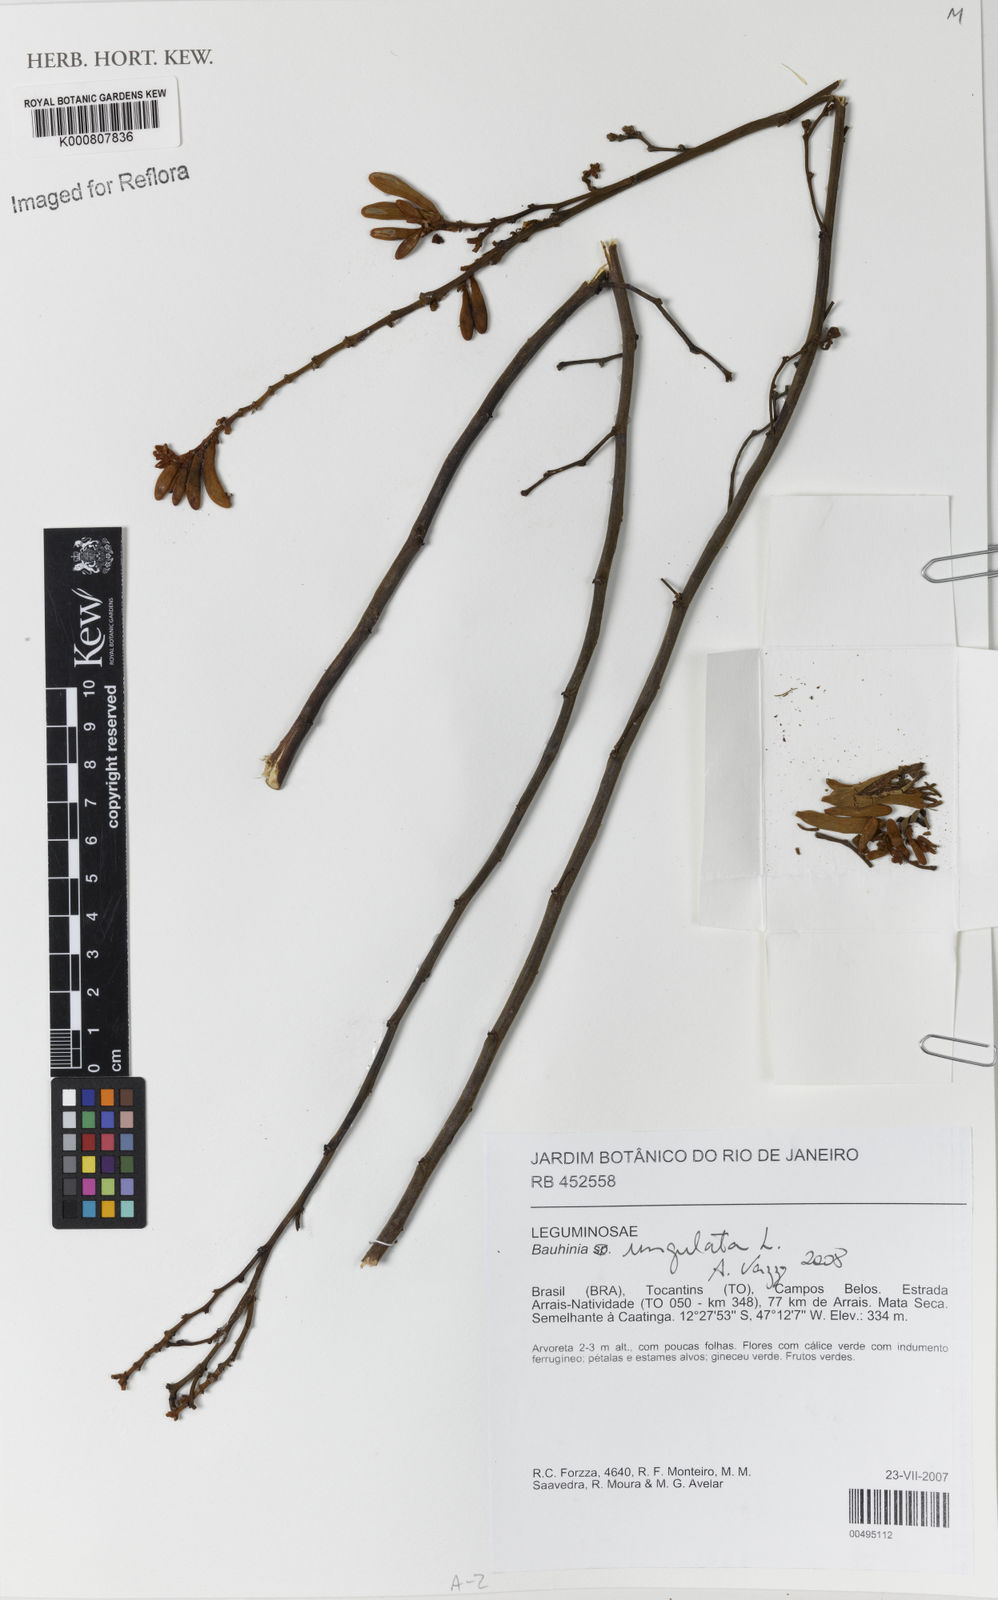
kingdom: Plantae
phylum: Tracheophyta
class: Magnoliopsida
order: Fabales
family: Fabaceae
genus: Bauhinia
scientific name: Bauhinia ungulata
